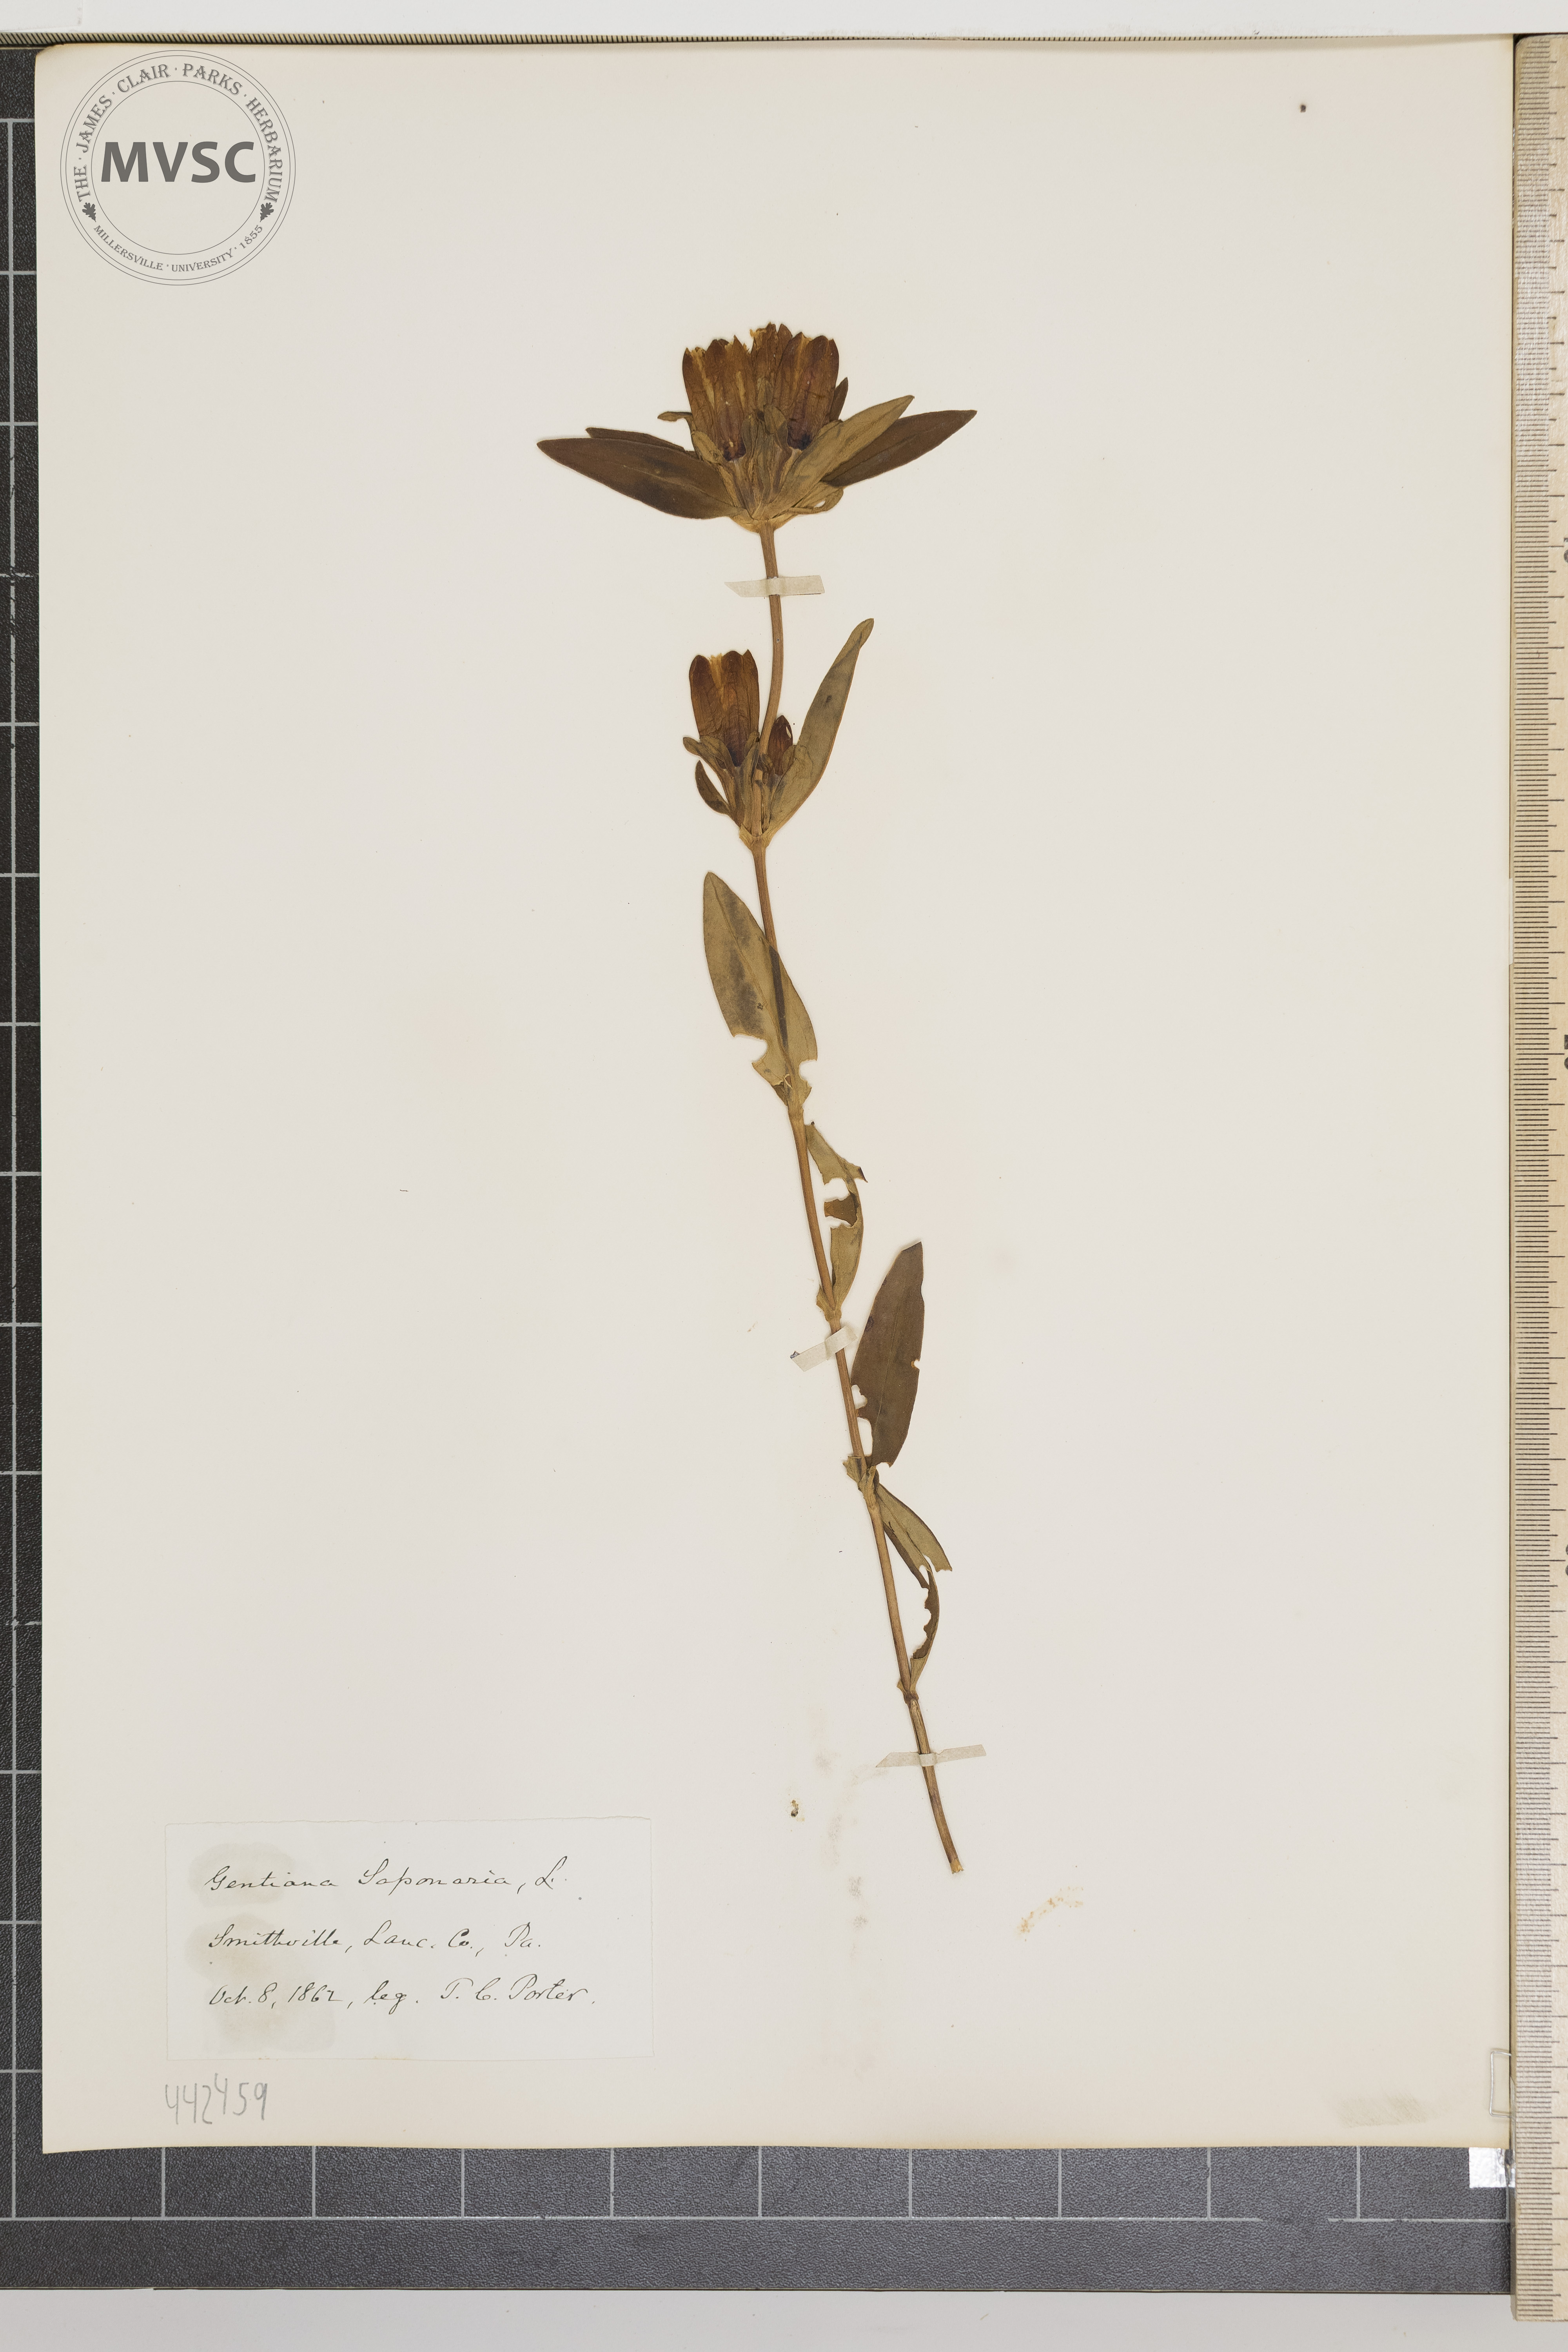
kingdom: Plantae
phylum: Tracheophyta
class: Magnoliopsida
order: Gentianales
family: Gentianaceae
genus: Gentiana
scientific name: Gentiana saponaria
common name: Soapwort gentian
